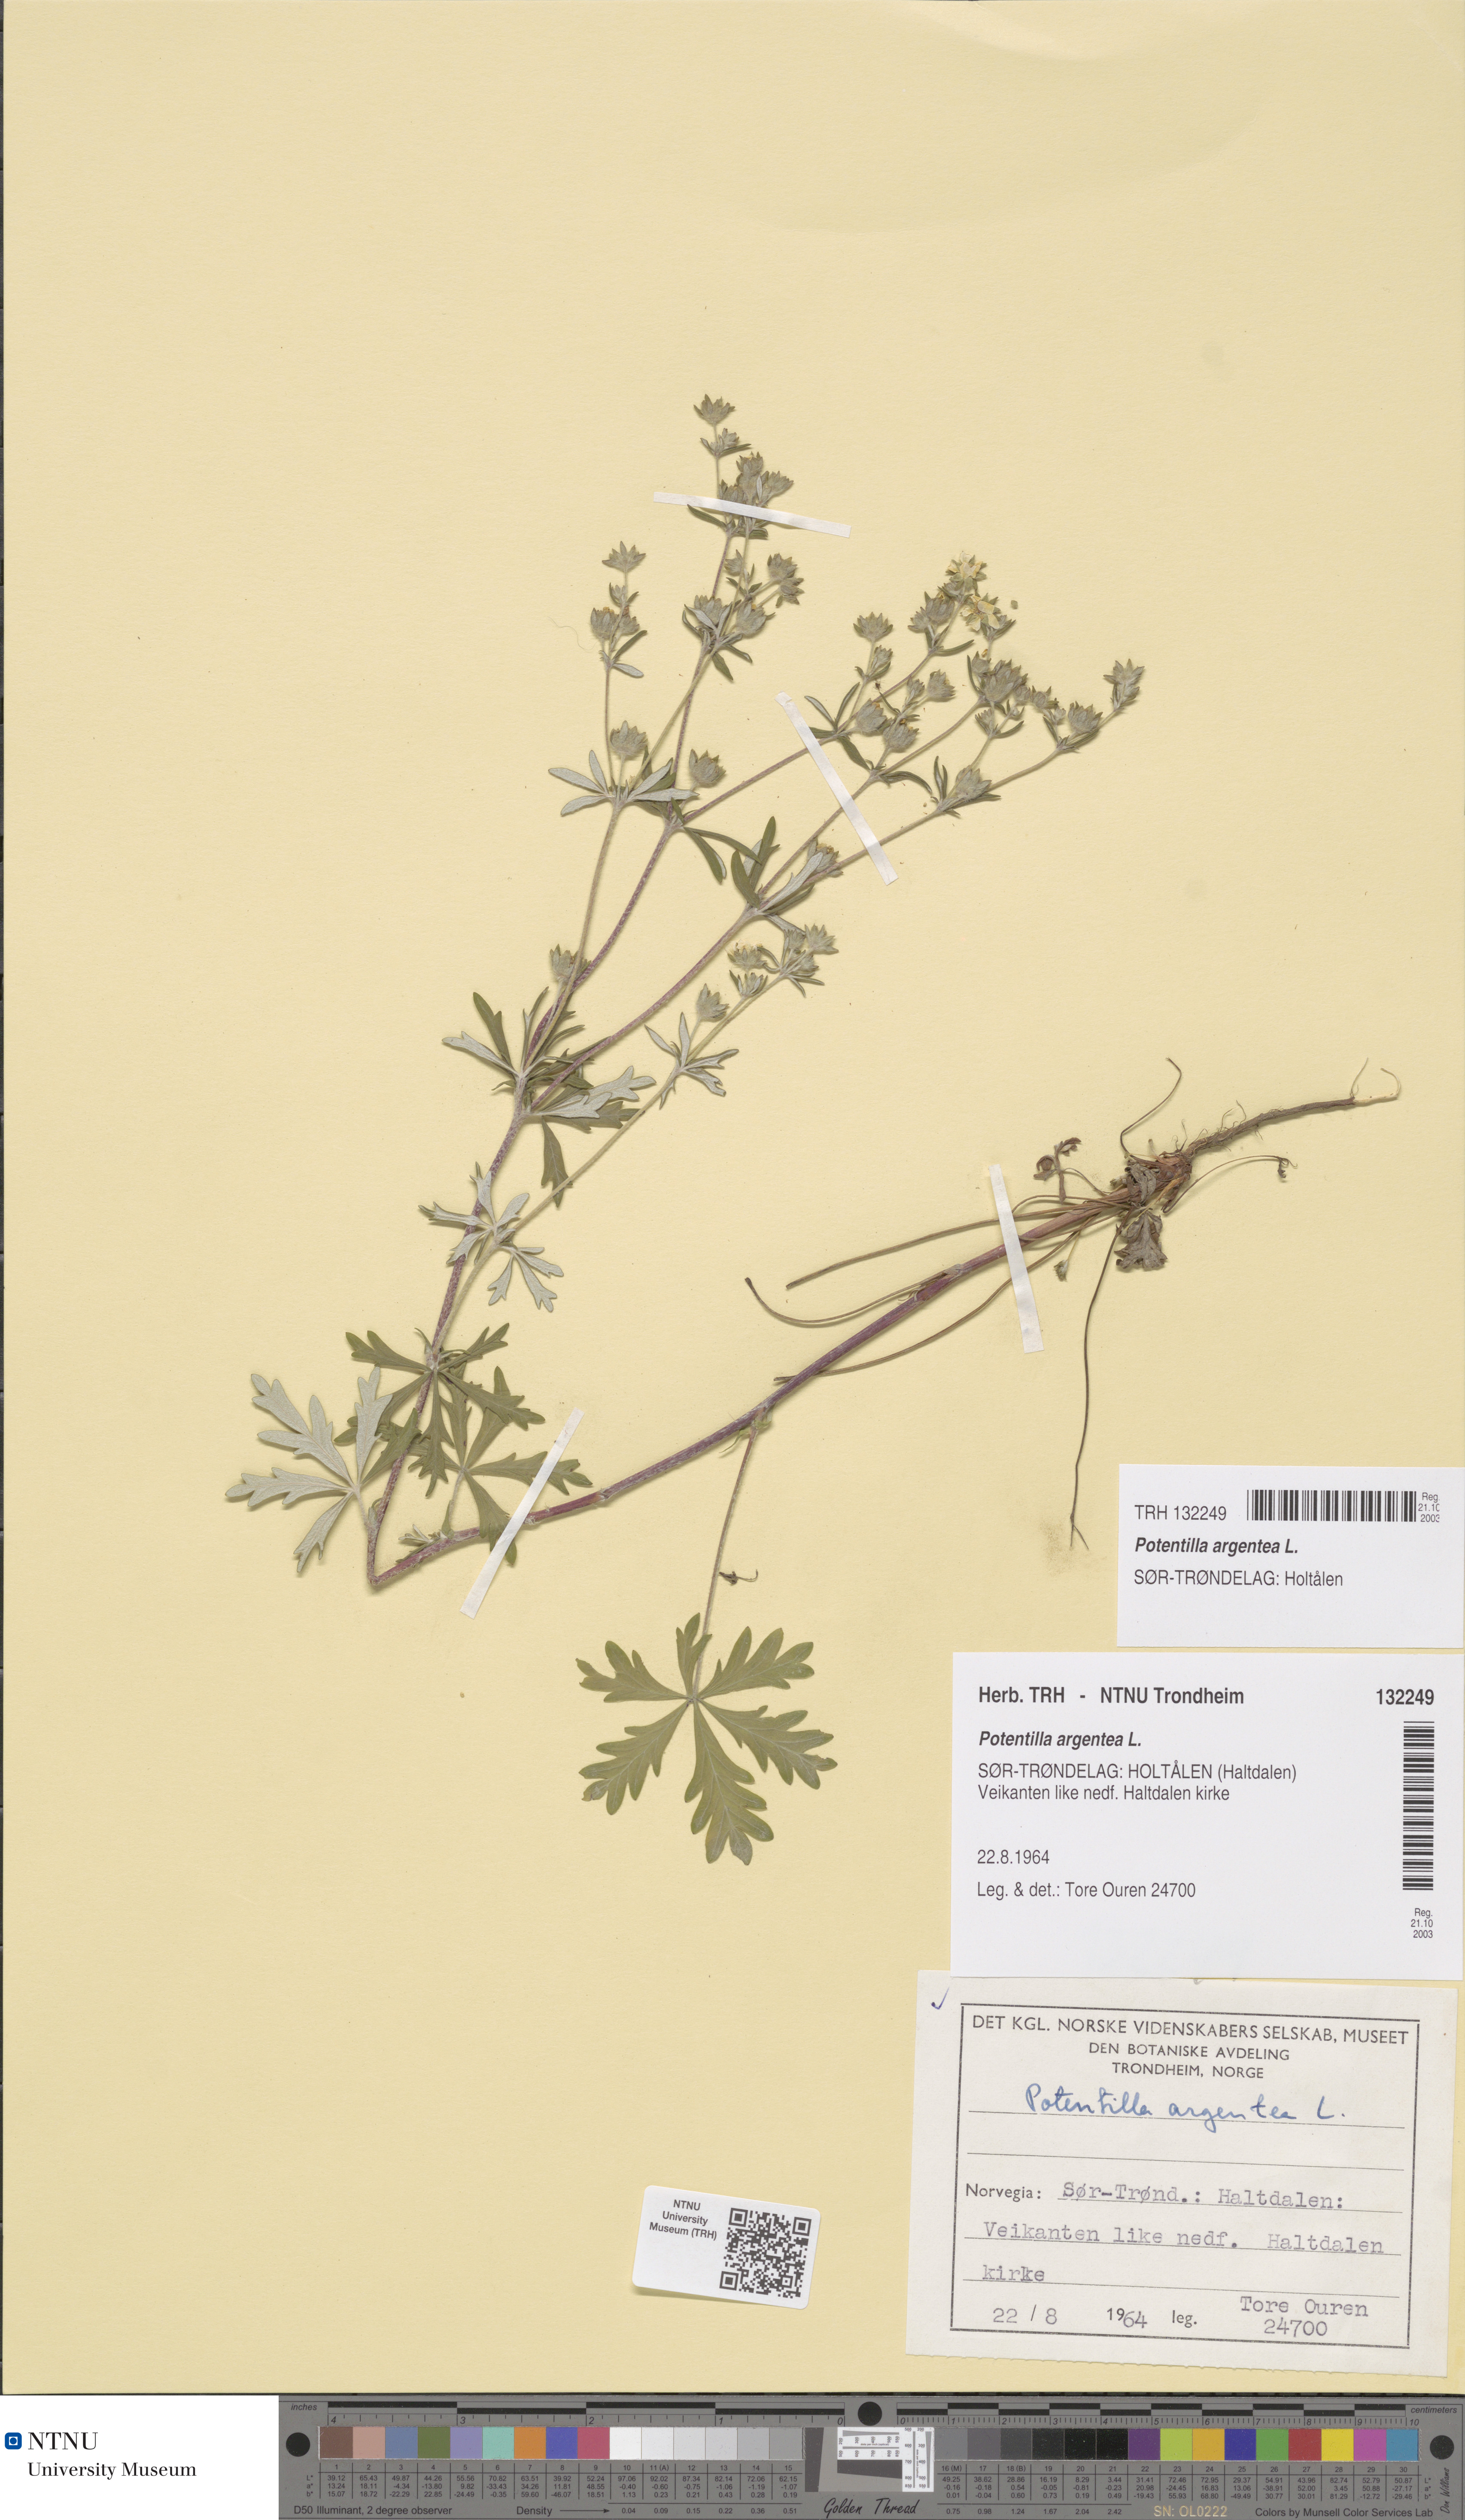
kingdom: Plantae
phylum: Tracheophyta
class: Magnoliopsida
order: Rosales
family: Rosaceae
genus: Potentilla
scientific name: Potentilla argentea
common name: Hoary cinquefoil
